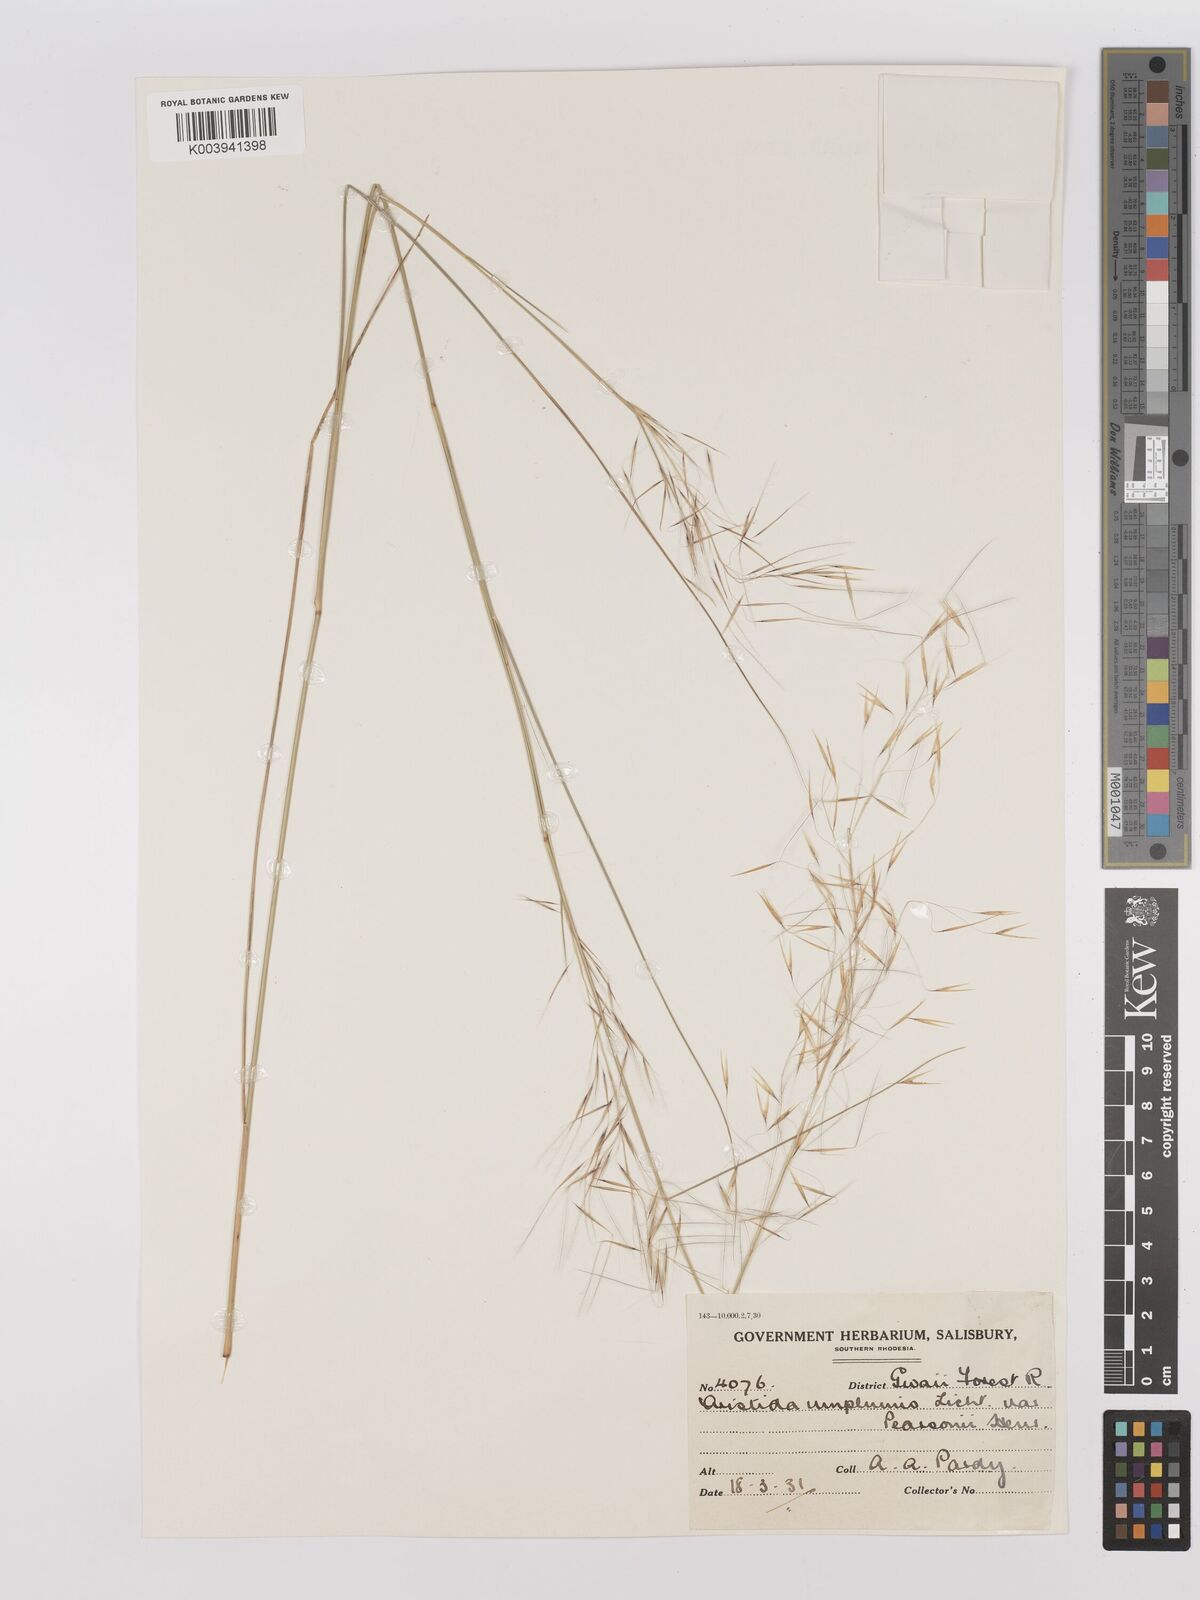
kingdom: Plantae
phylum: Tracheophyta
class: Liliopsida
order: Poales
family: Poaceae
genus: Stipagrostis
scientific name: Stipagrostis uniplumis
